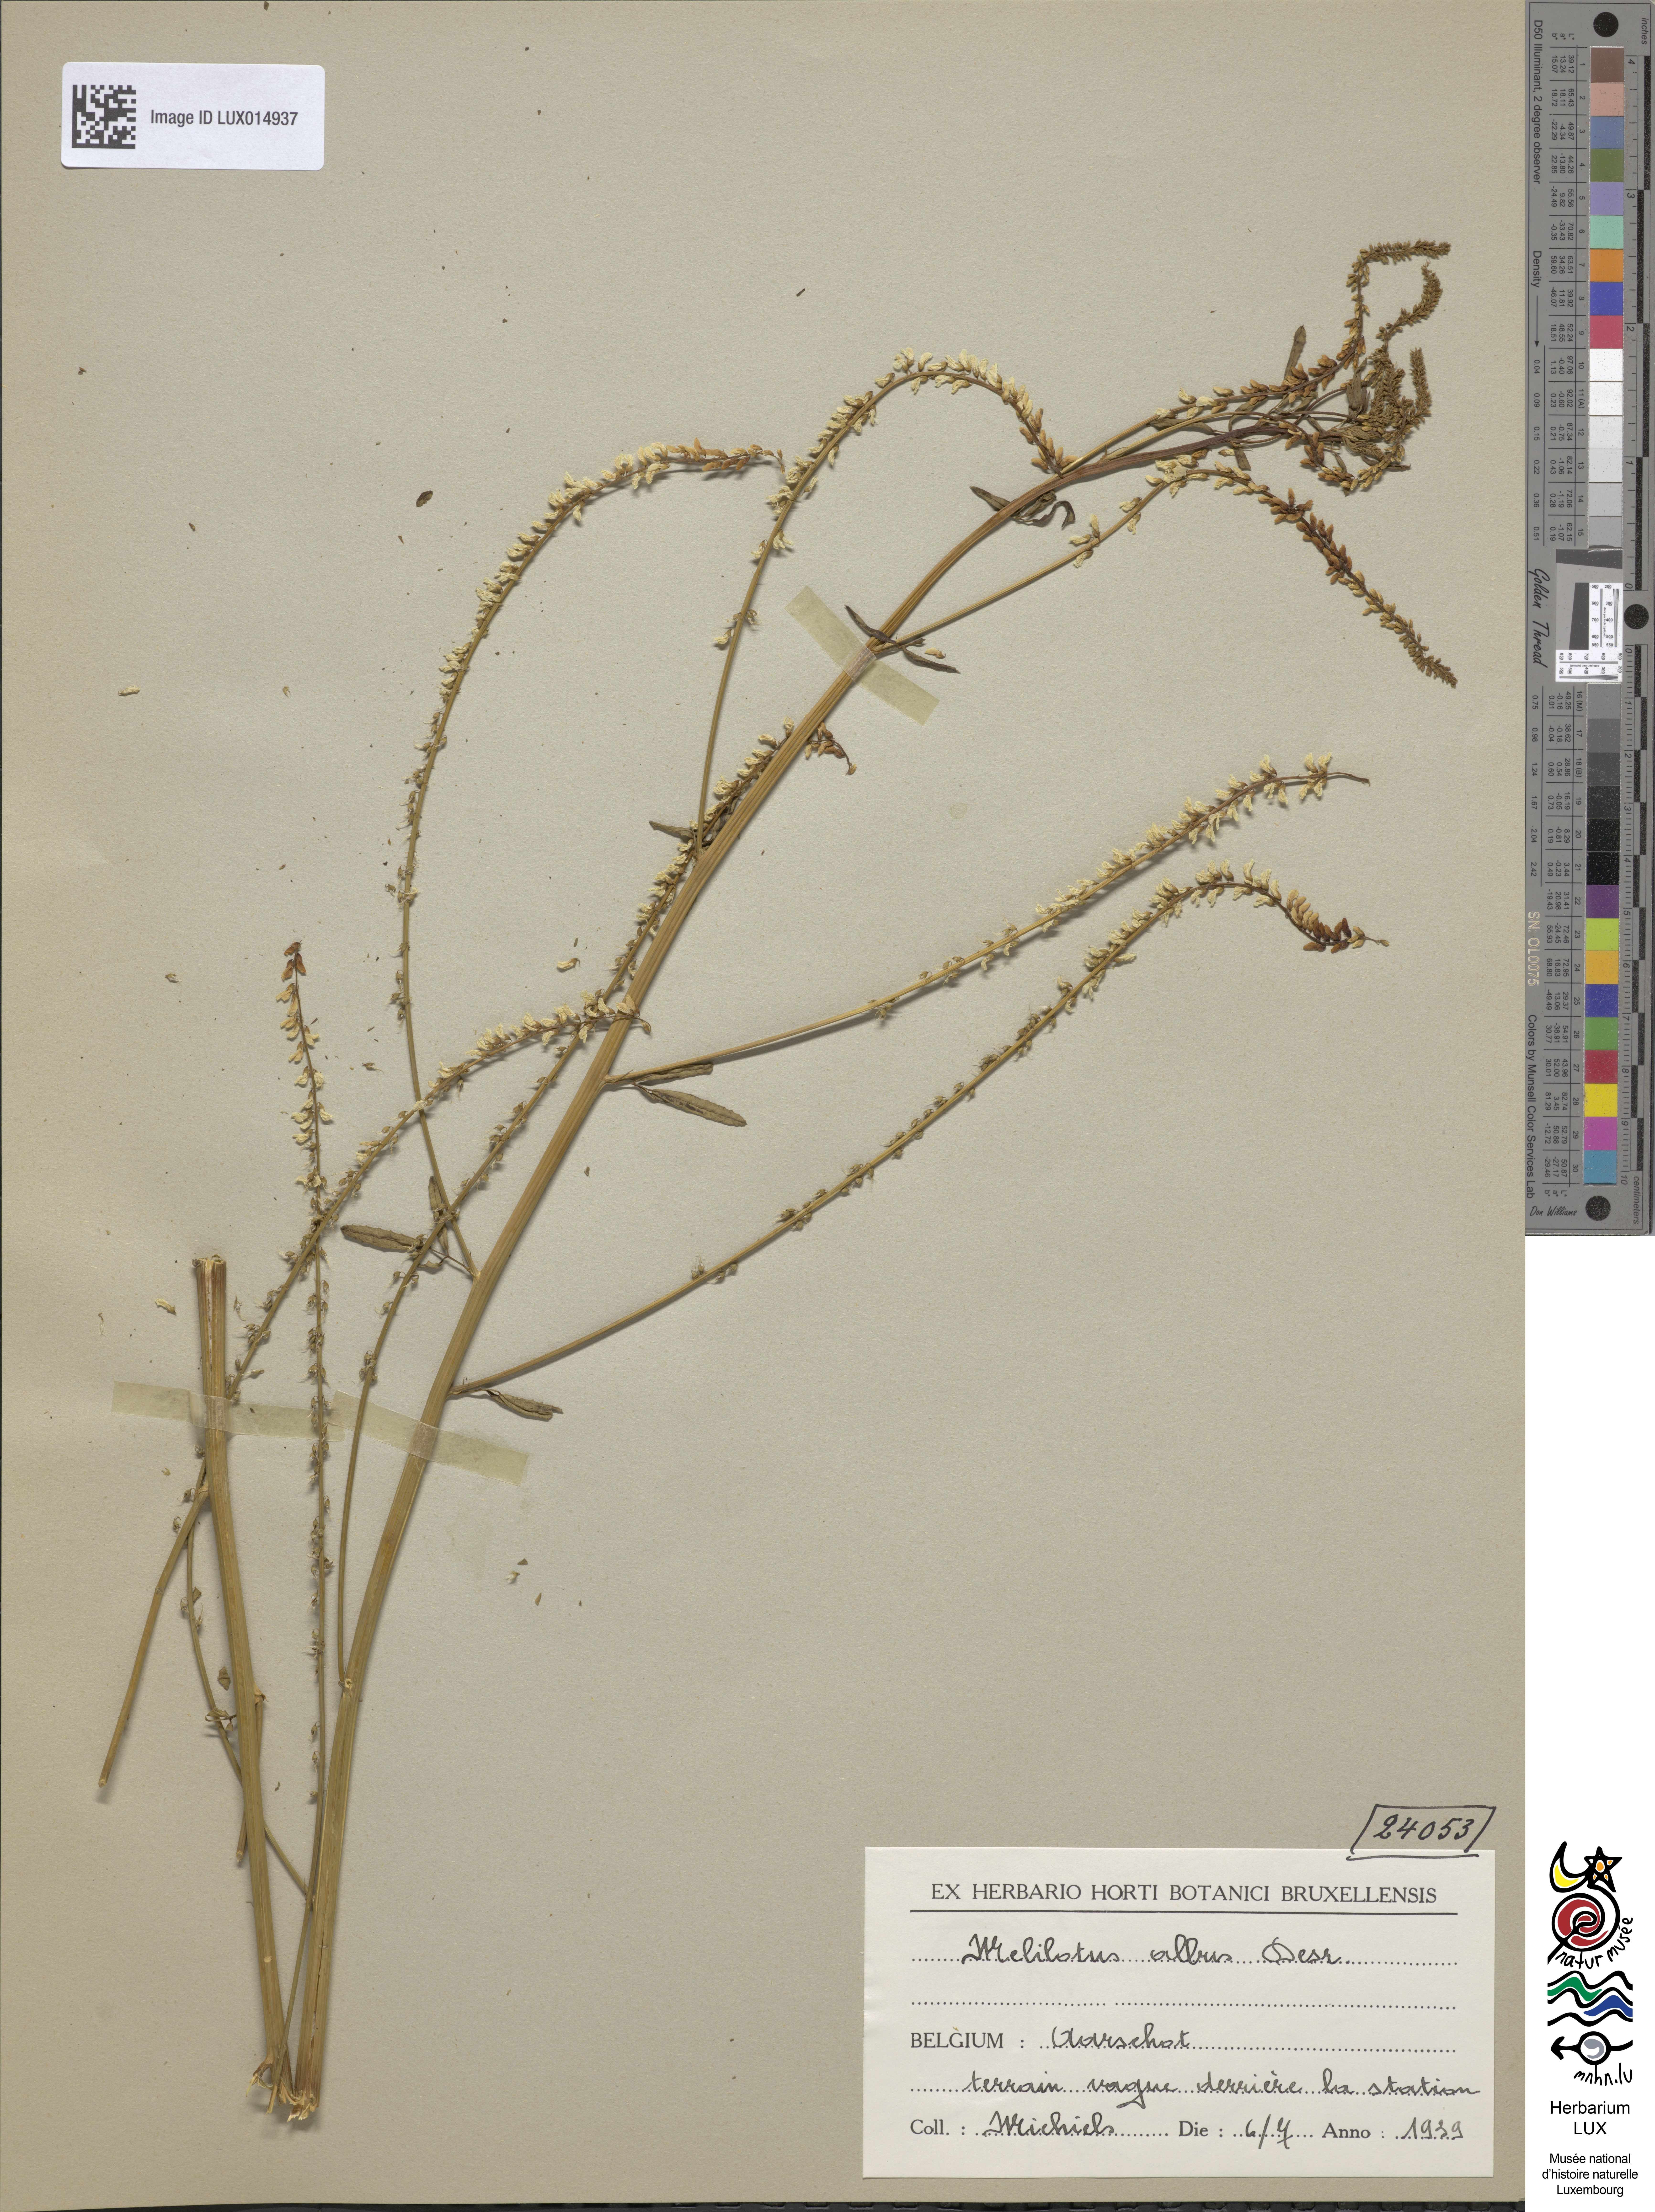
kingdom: Plantae
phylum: Tracheophyta
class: Magnoliopsida
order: Fabales
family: Fabaceae
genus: Melilotus
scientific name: Melilotus albus
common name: White melilot
